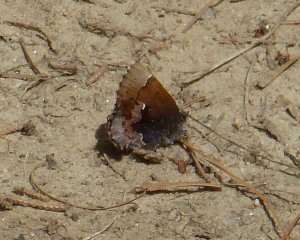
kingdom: Animalia
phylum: Arthropoda
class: Insecta
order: Lepidoptera
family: Lycaenidae
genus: Incisalia
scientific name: Incisalia henrici
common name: Henry's Elfin
